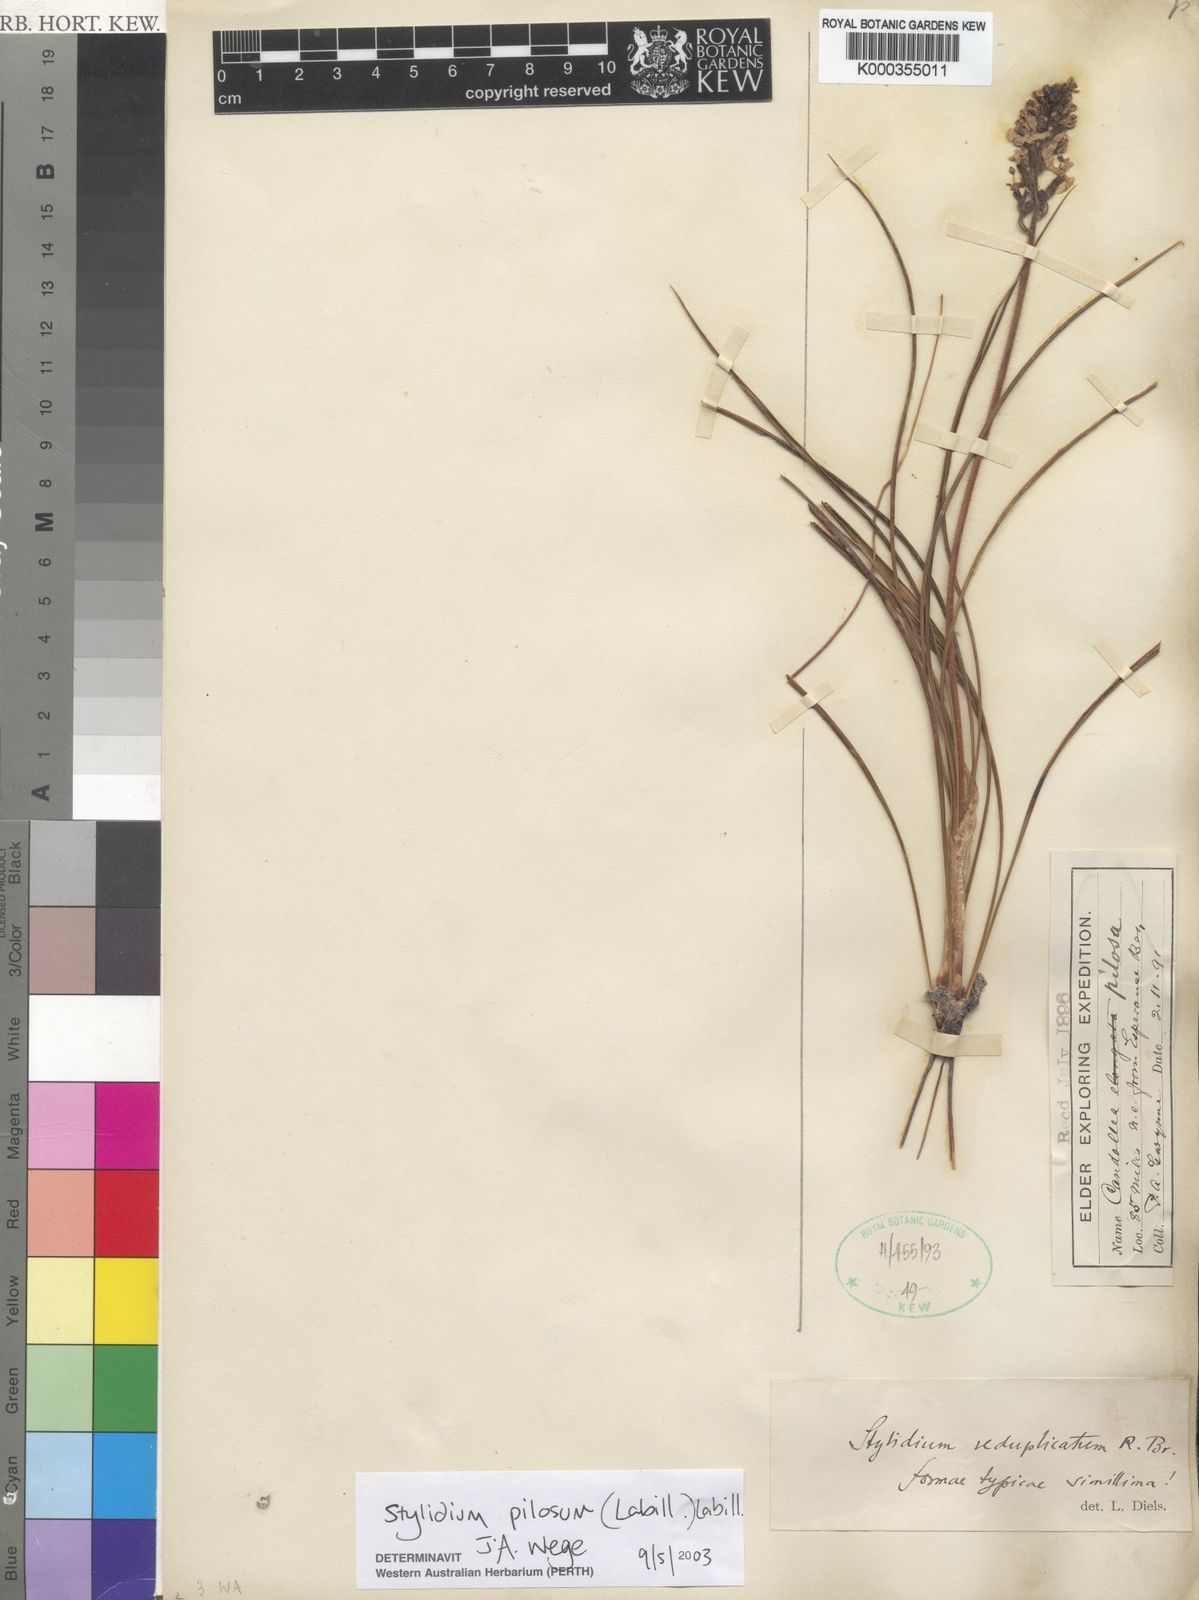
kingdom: Plantae
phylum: Tracheophyta
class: Magnoliopsida
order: Asterales
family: Stylidiaceae
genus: Stylidium
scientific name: Stylidium pilosum
